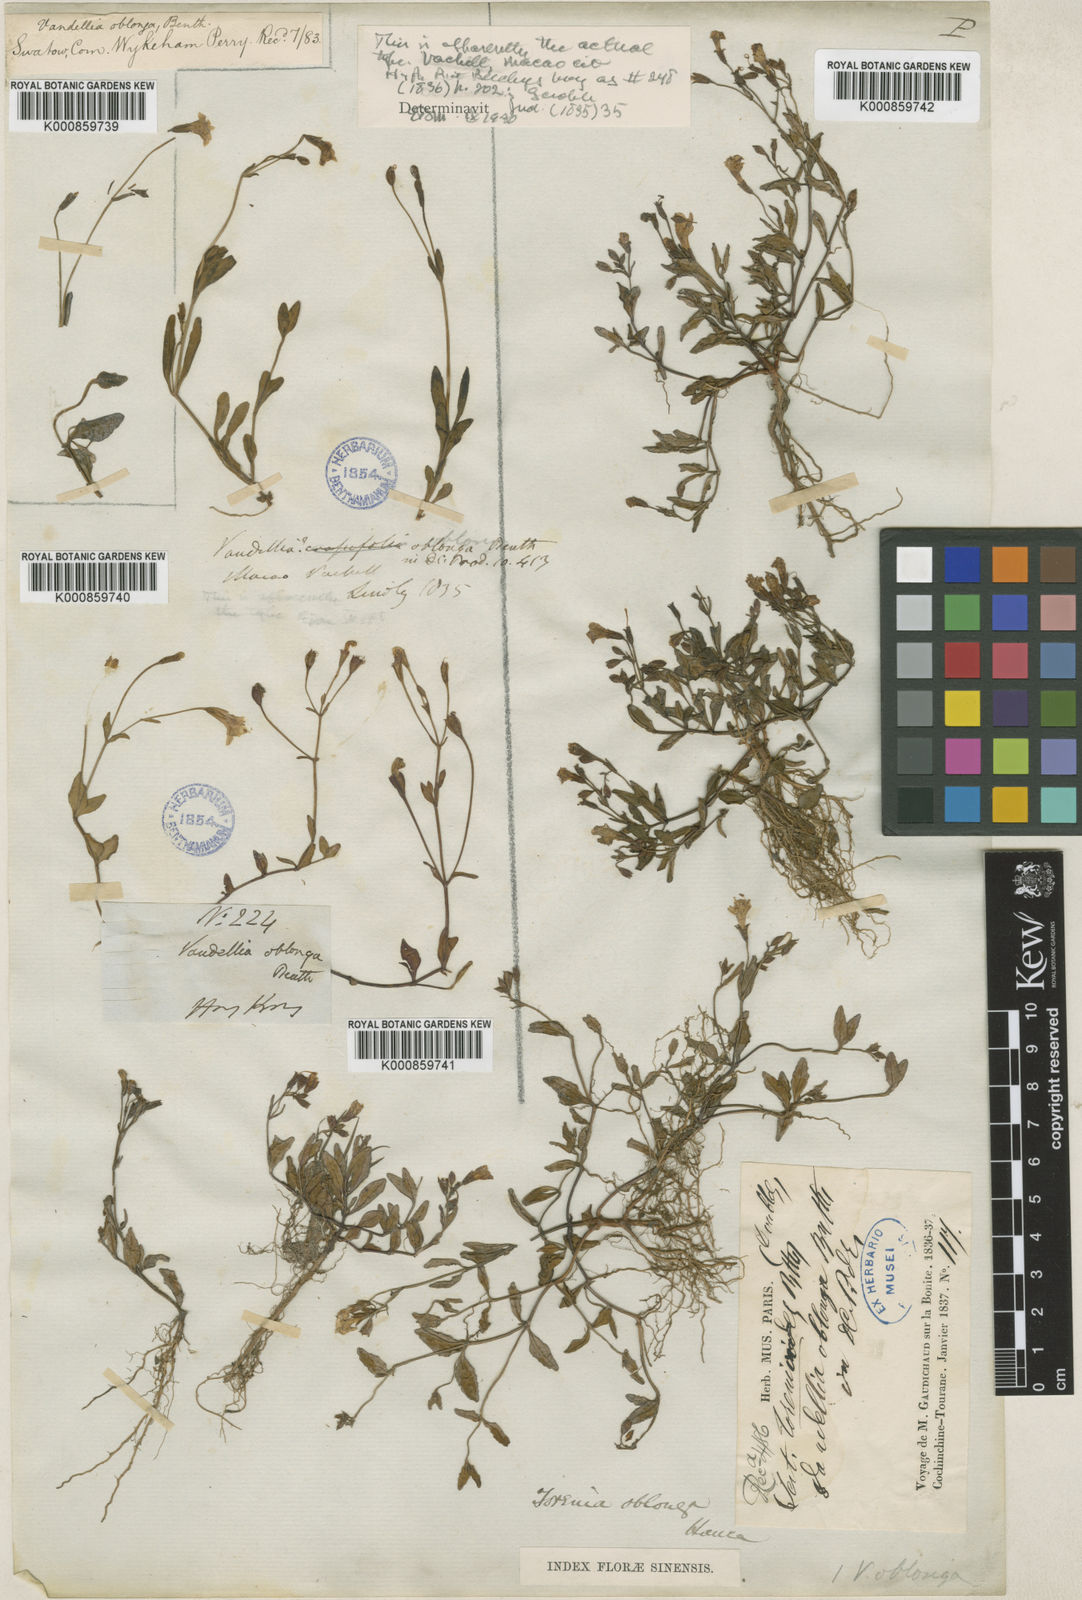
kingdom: Plantae
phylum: Tracheophyta
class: Magnoliopsida
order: Lamiales
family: Linderniaceae
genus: Torenia
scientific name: Torenia oblonga
